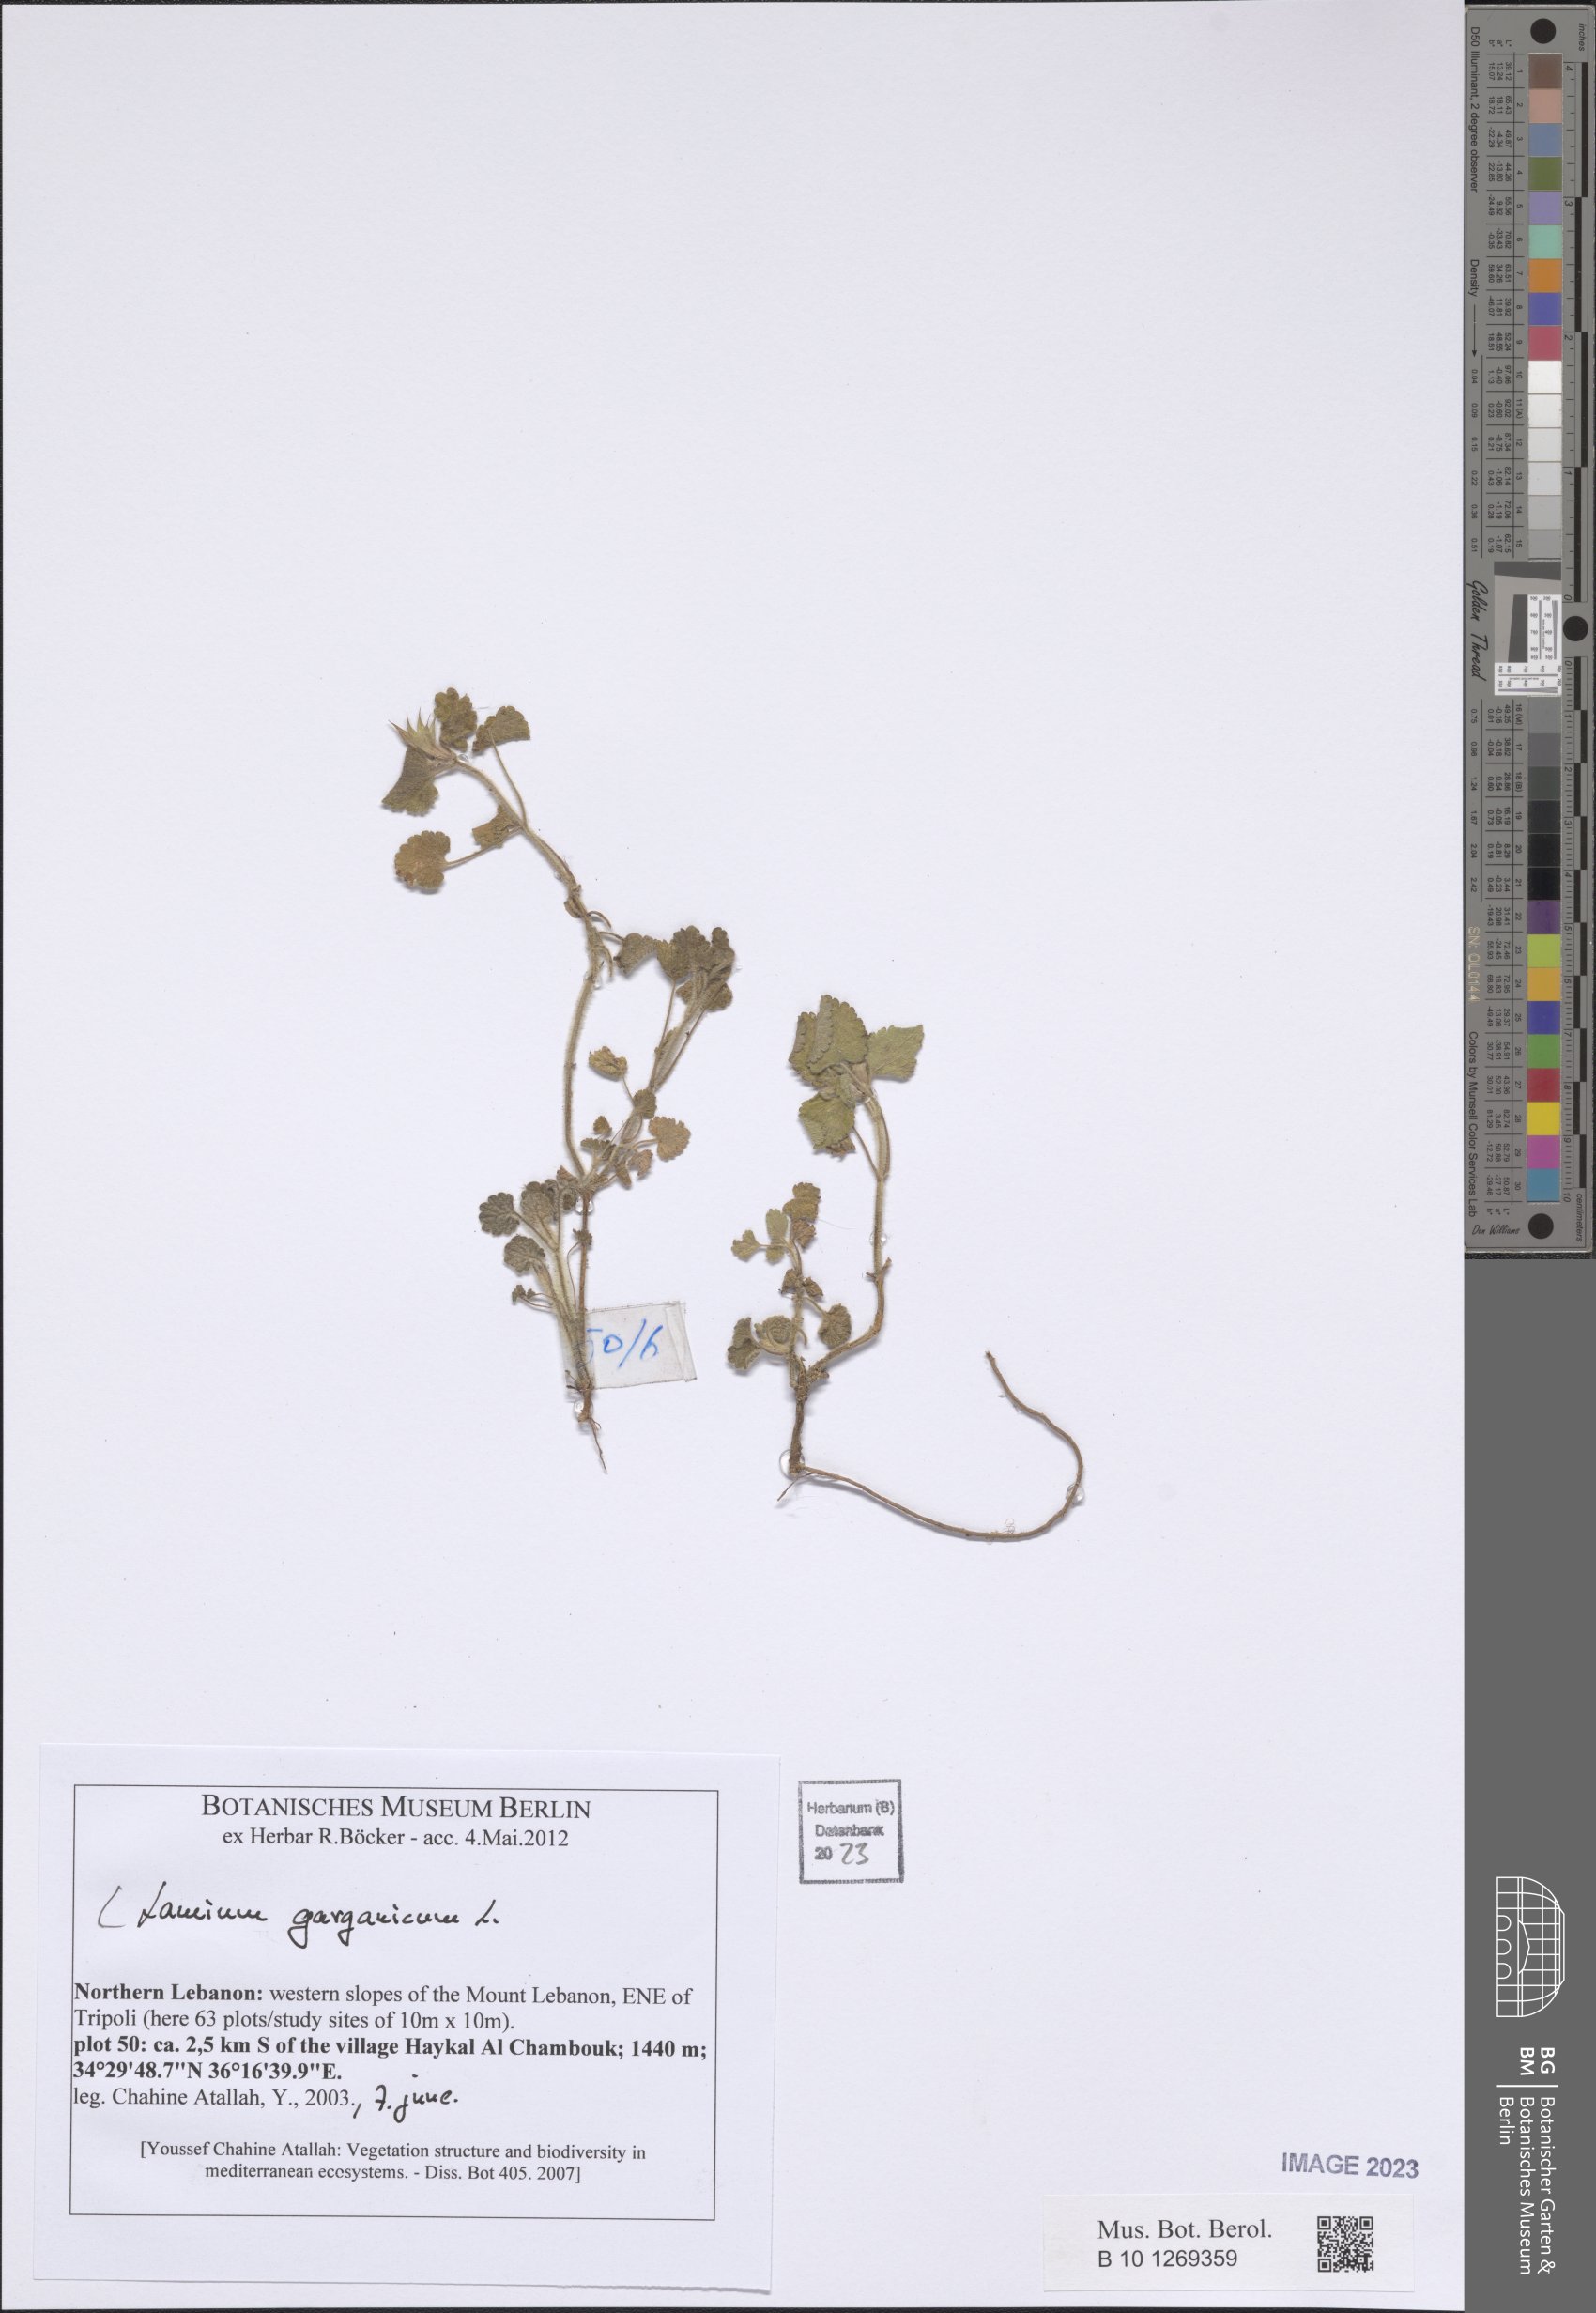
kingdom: Plantae
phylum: Tracheophyta
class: Magnoliopsida
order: Lamiales
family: Lamiaceae
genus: Lamium
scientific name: Lamium garganicum
